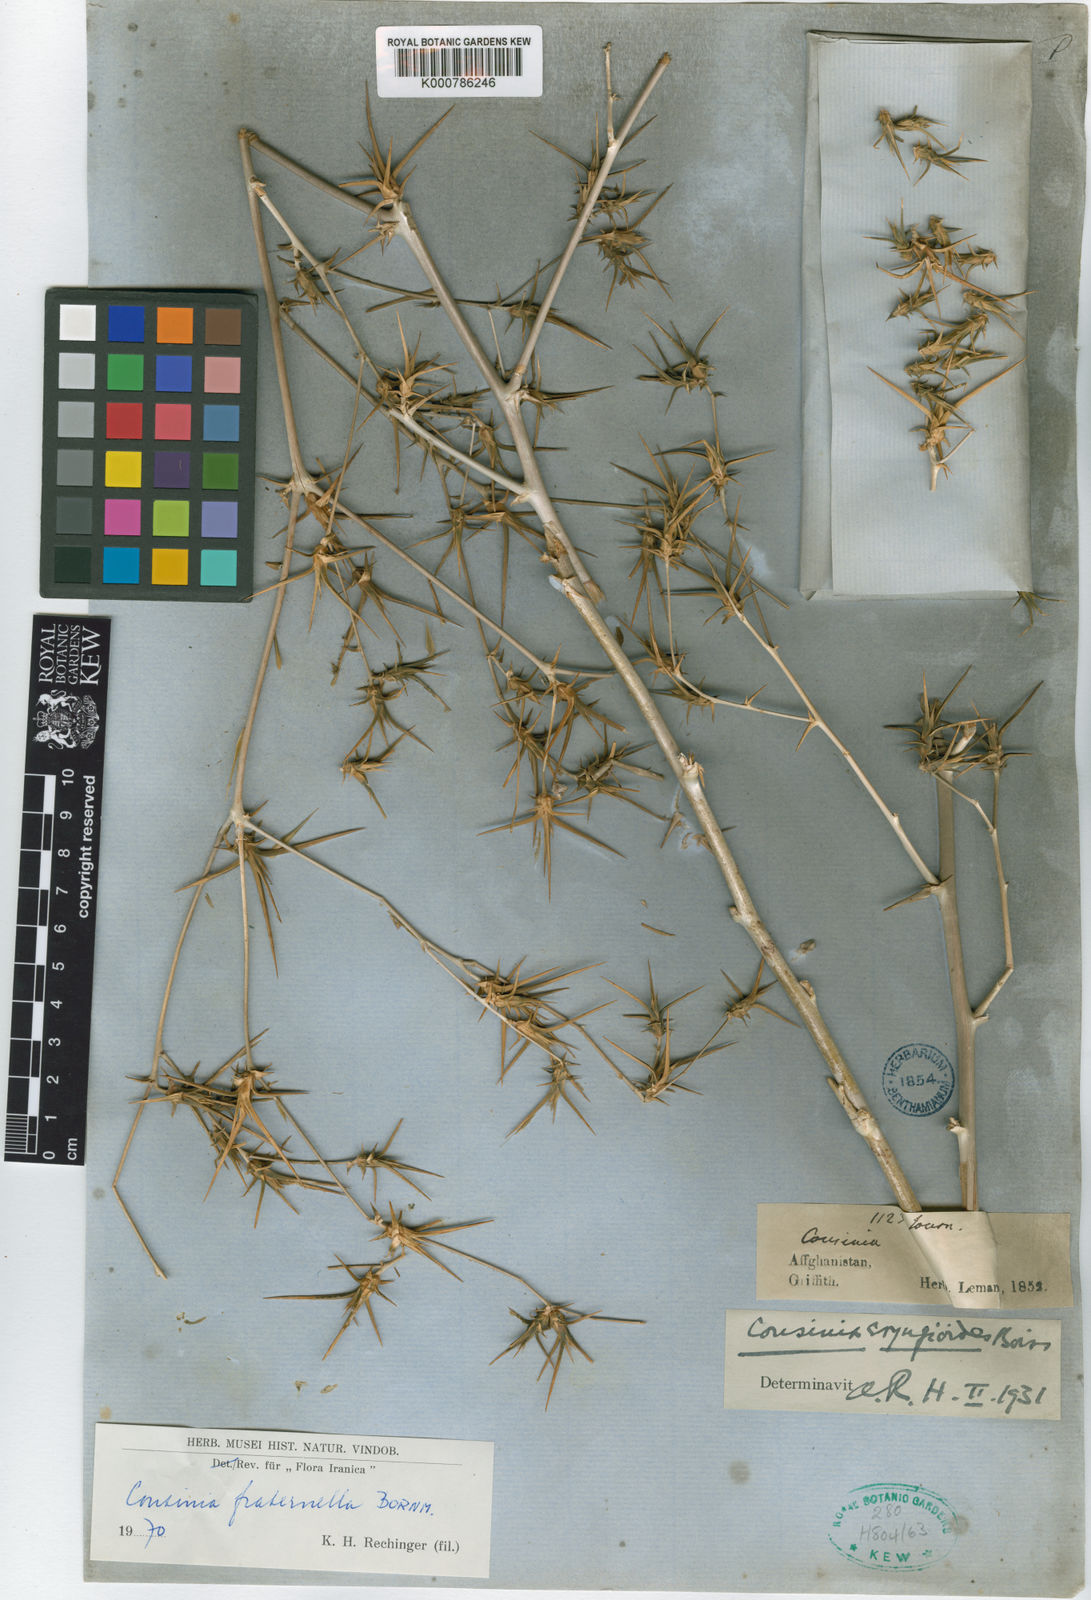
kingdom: Plantae
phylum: Tracheophyta
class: Magnoliopsida
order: Asterales
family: Asteraceae
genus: Cousinia
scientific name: Cousinia fraternella
